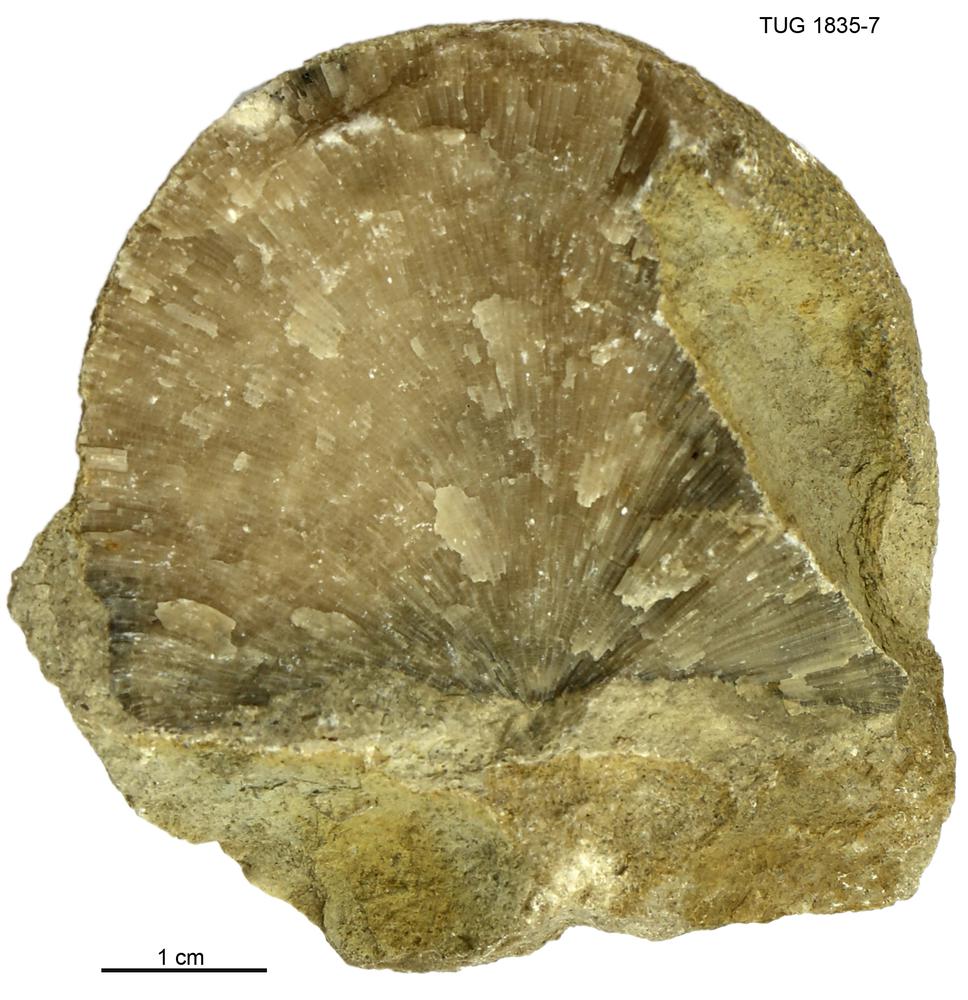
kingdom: Animalia
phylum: Bryozoa
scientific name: Bryozoa
